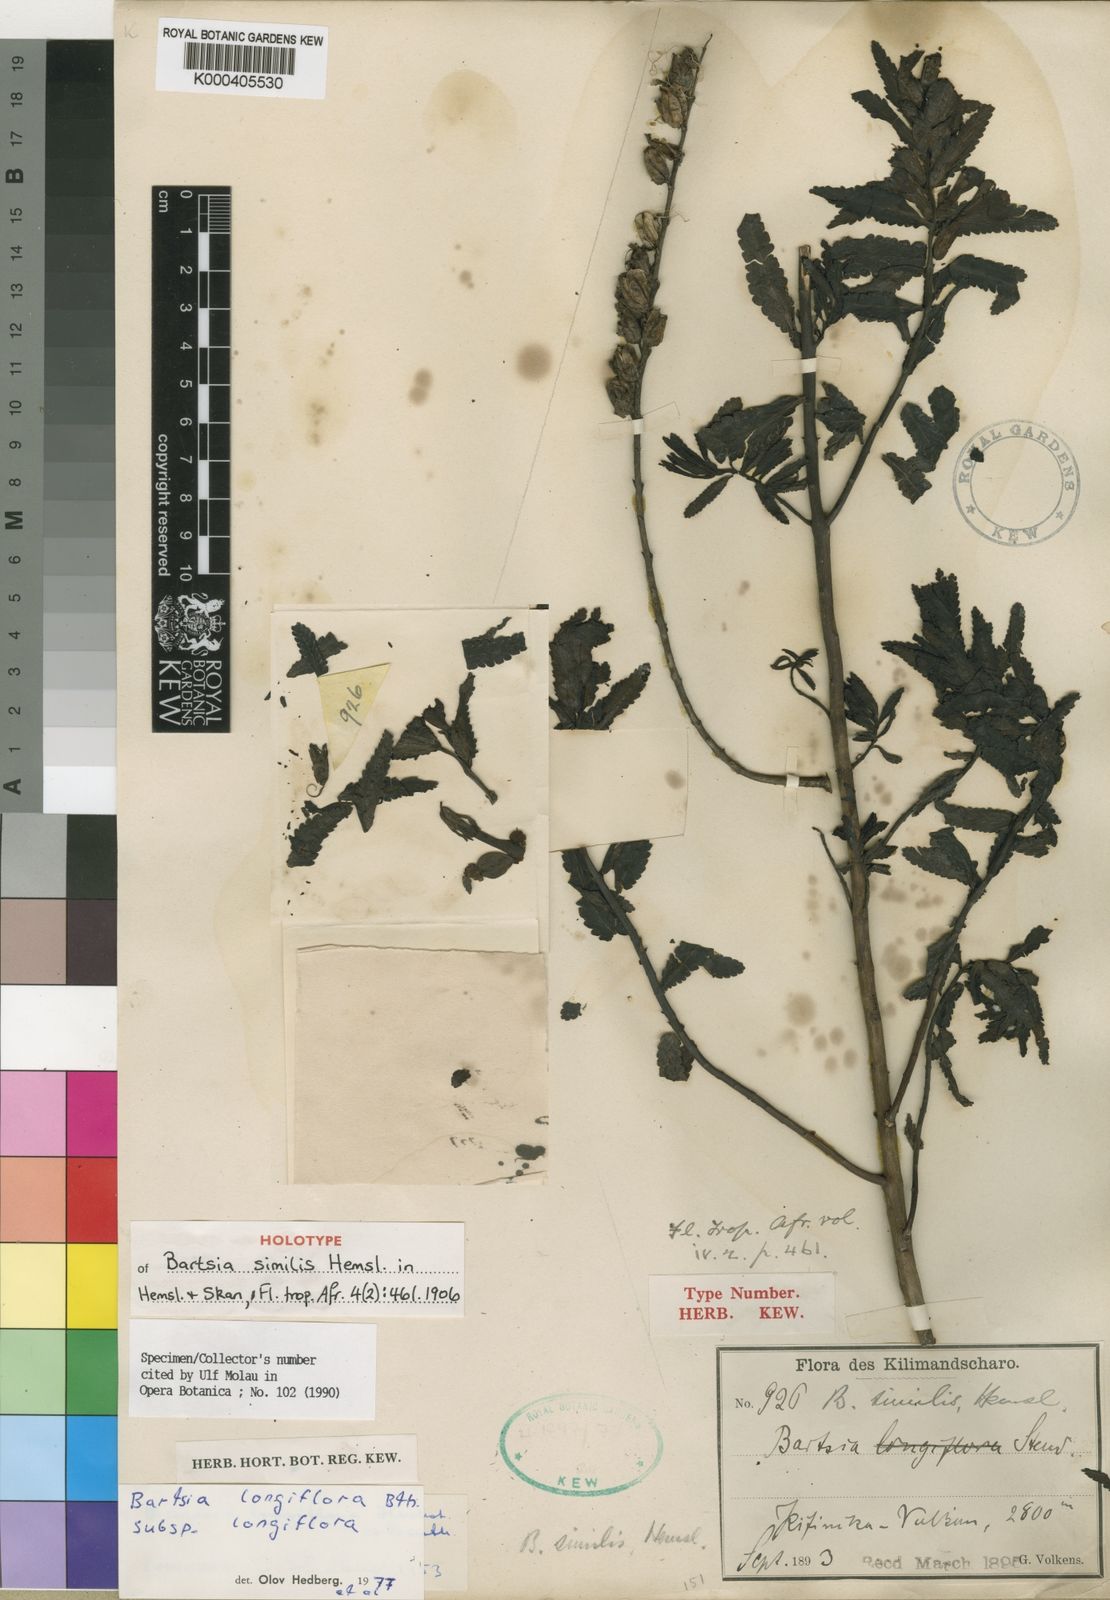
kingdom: Plantae
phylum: Tracheophyta
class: Magnoliopsida
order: Lamiales
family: Orobanchaceae
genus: Hedbergia
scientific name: Hedbergia longiflora
